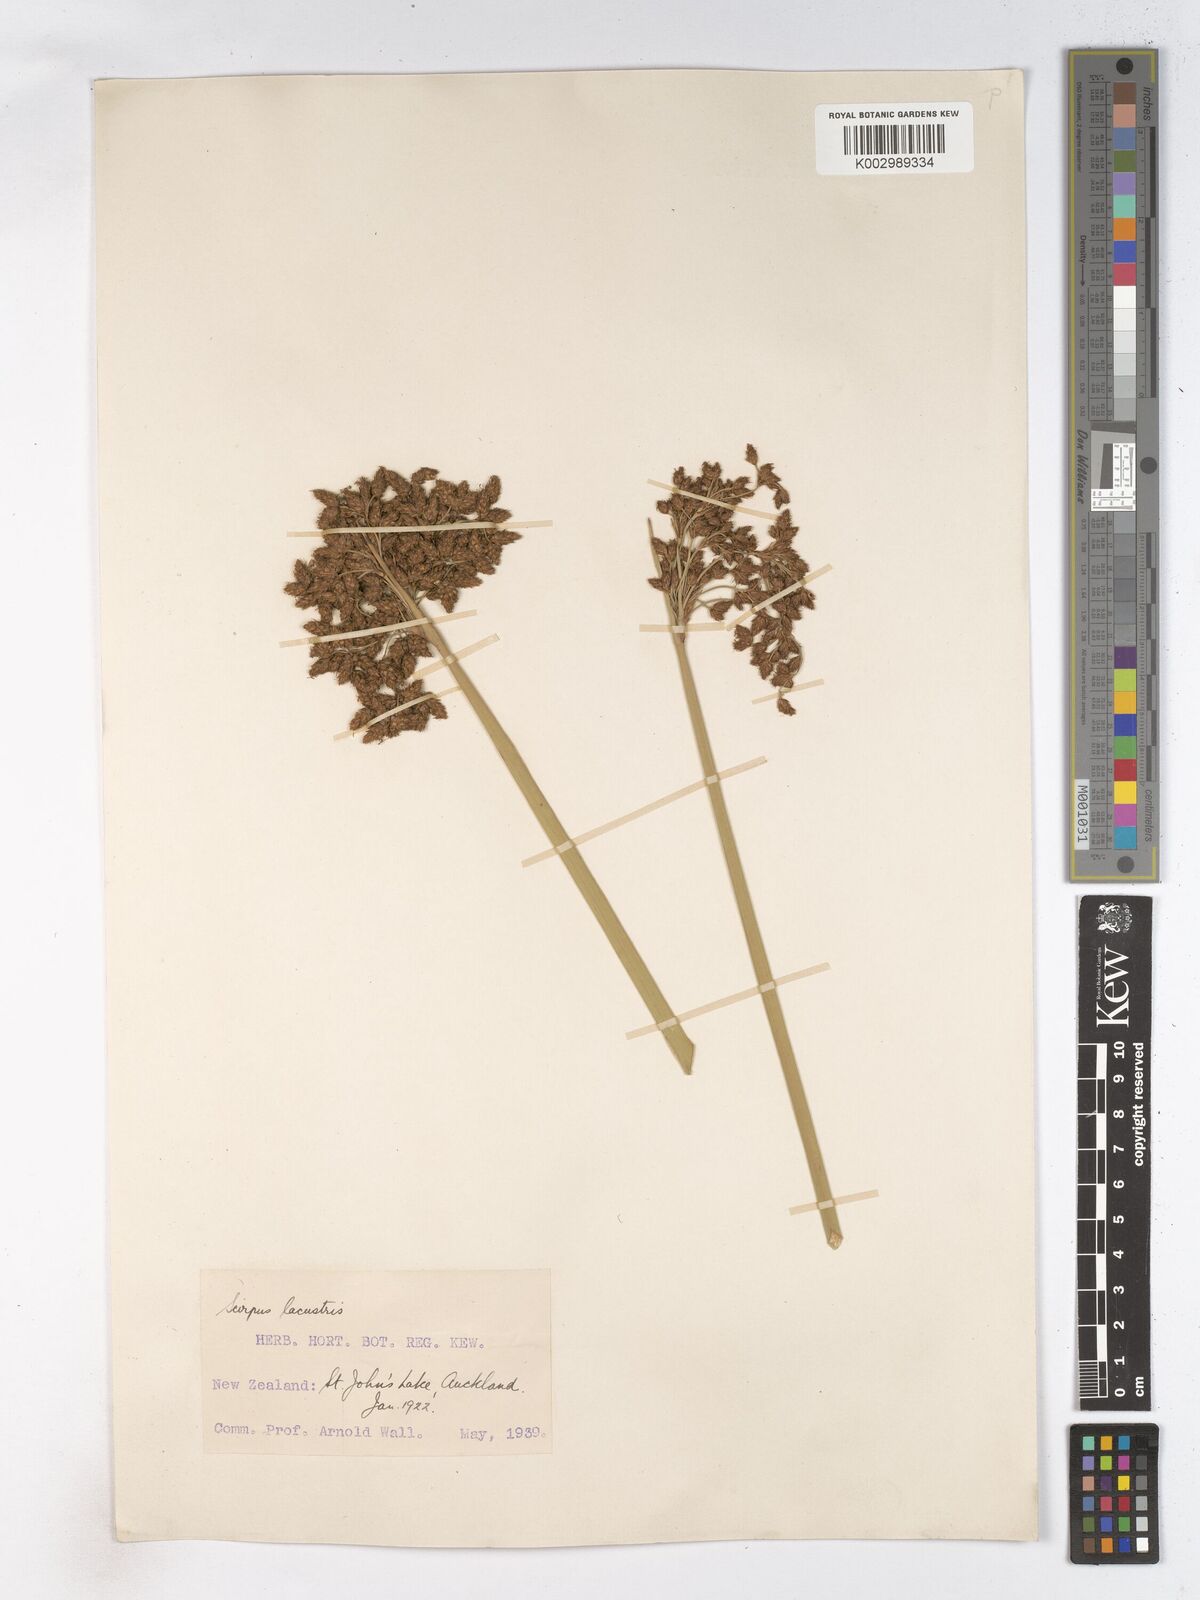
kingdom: Plantae
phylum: Tracheophyta
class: Liliopsida
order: Poales
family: Cyperaceae
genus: Schoenoplectus
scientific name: Schoenoplectus lacustris
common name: Common club-rush
